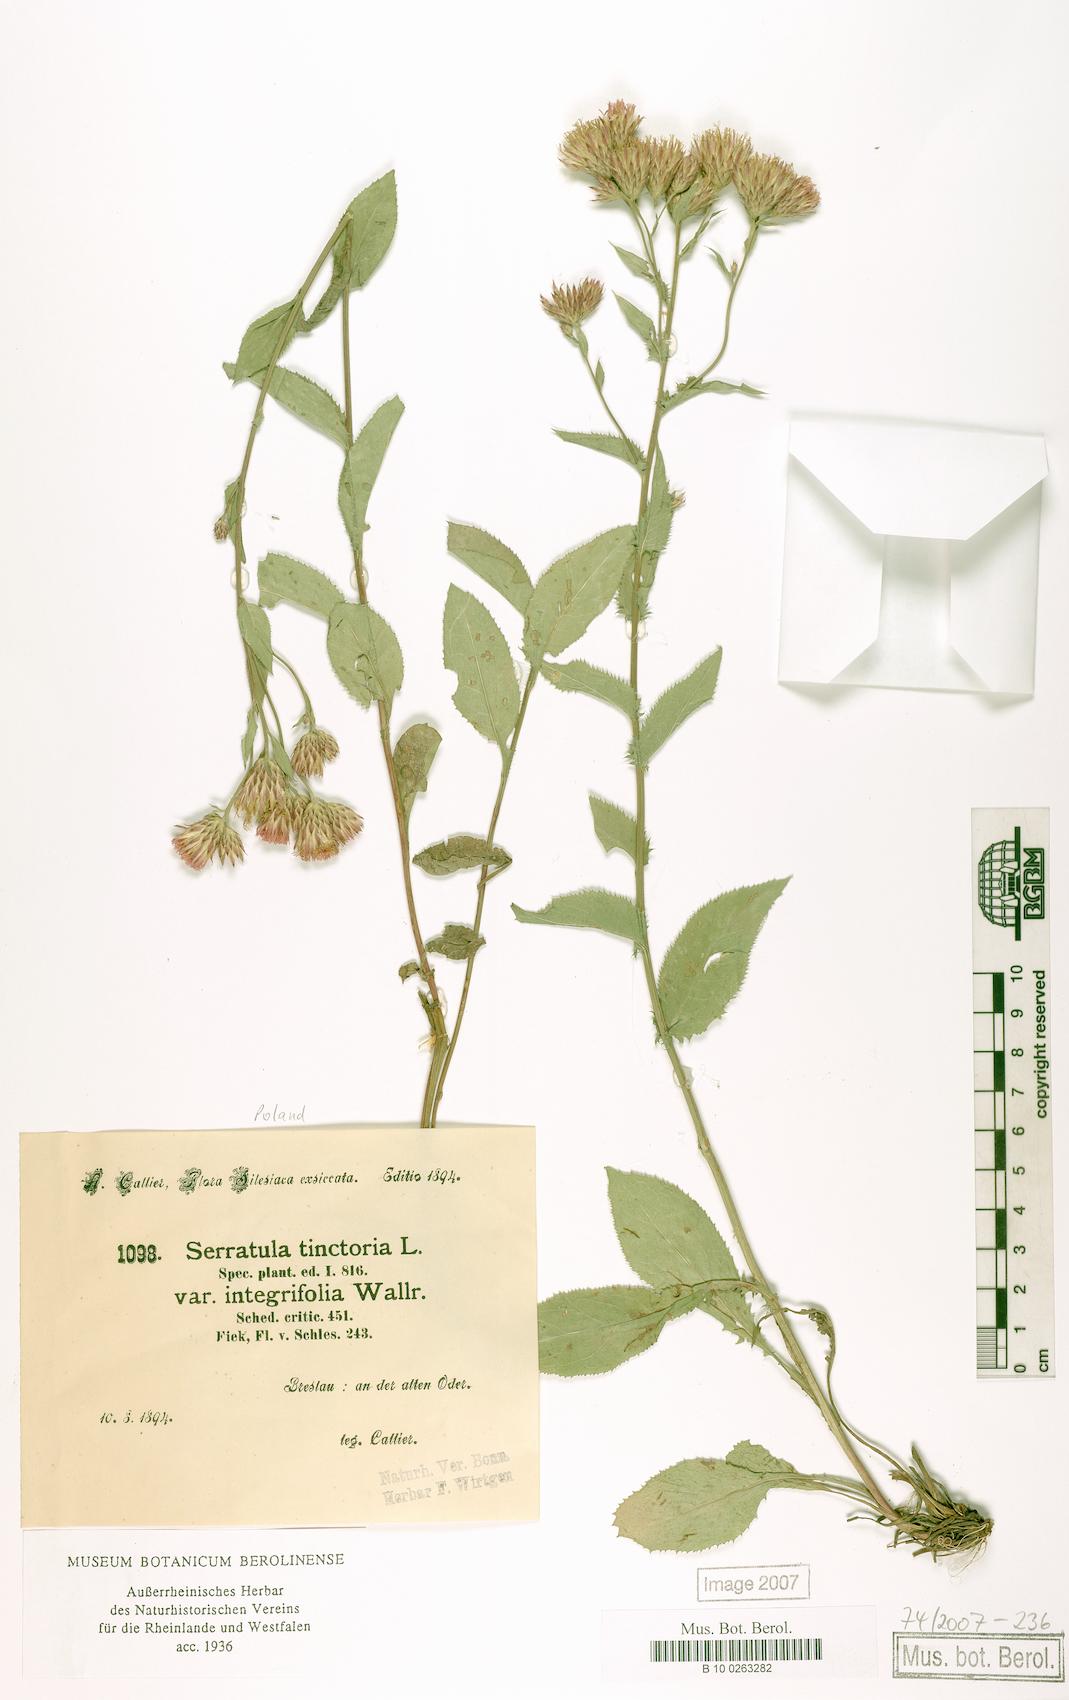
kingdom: Plantae
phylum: Tracheophyta
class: Magnoliopsida
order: Asterales
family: Asteraceae
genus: Serratula
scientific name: Serratula tinctoria
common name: Saw-wort
